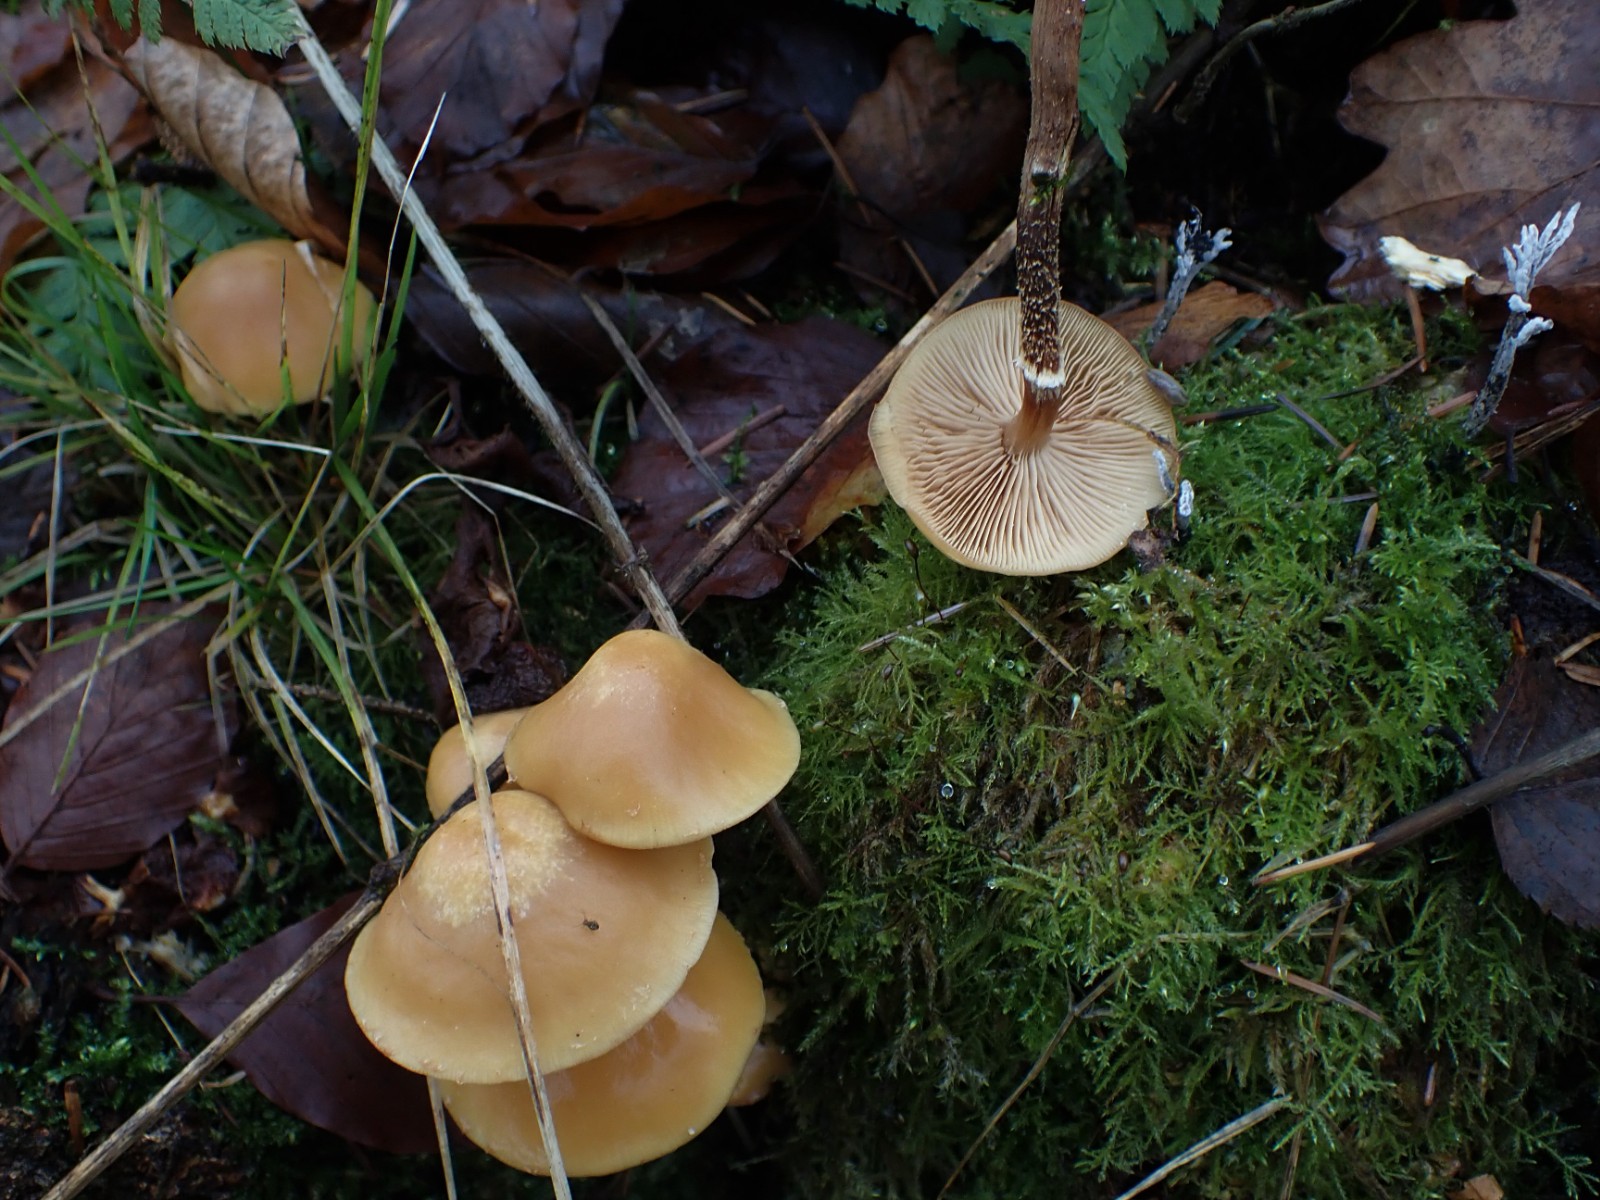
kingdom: Fungi
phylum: Basidiomycota
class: Agaricomycetes
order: Agaricales
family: Strophariaceae
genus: Kuehneromyces
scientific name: Kuehneromyces mutabilis
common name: foranderlig skælhat
